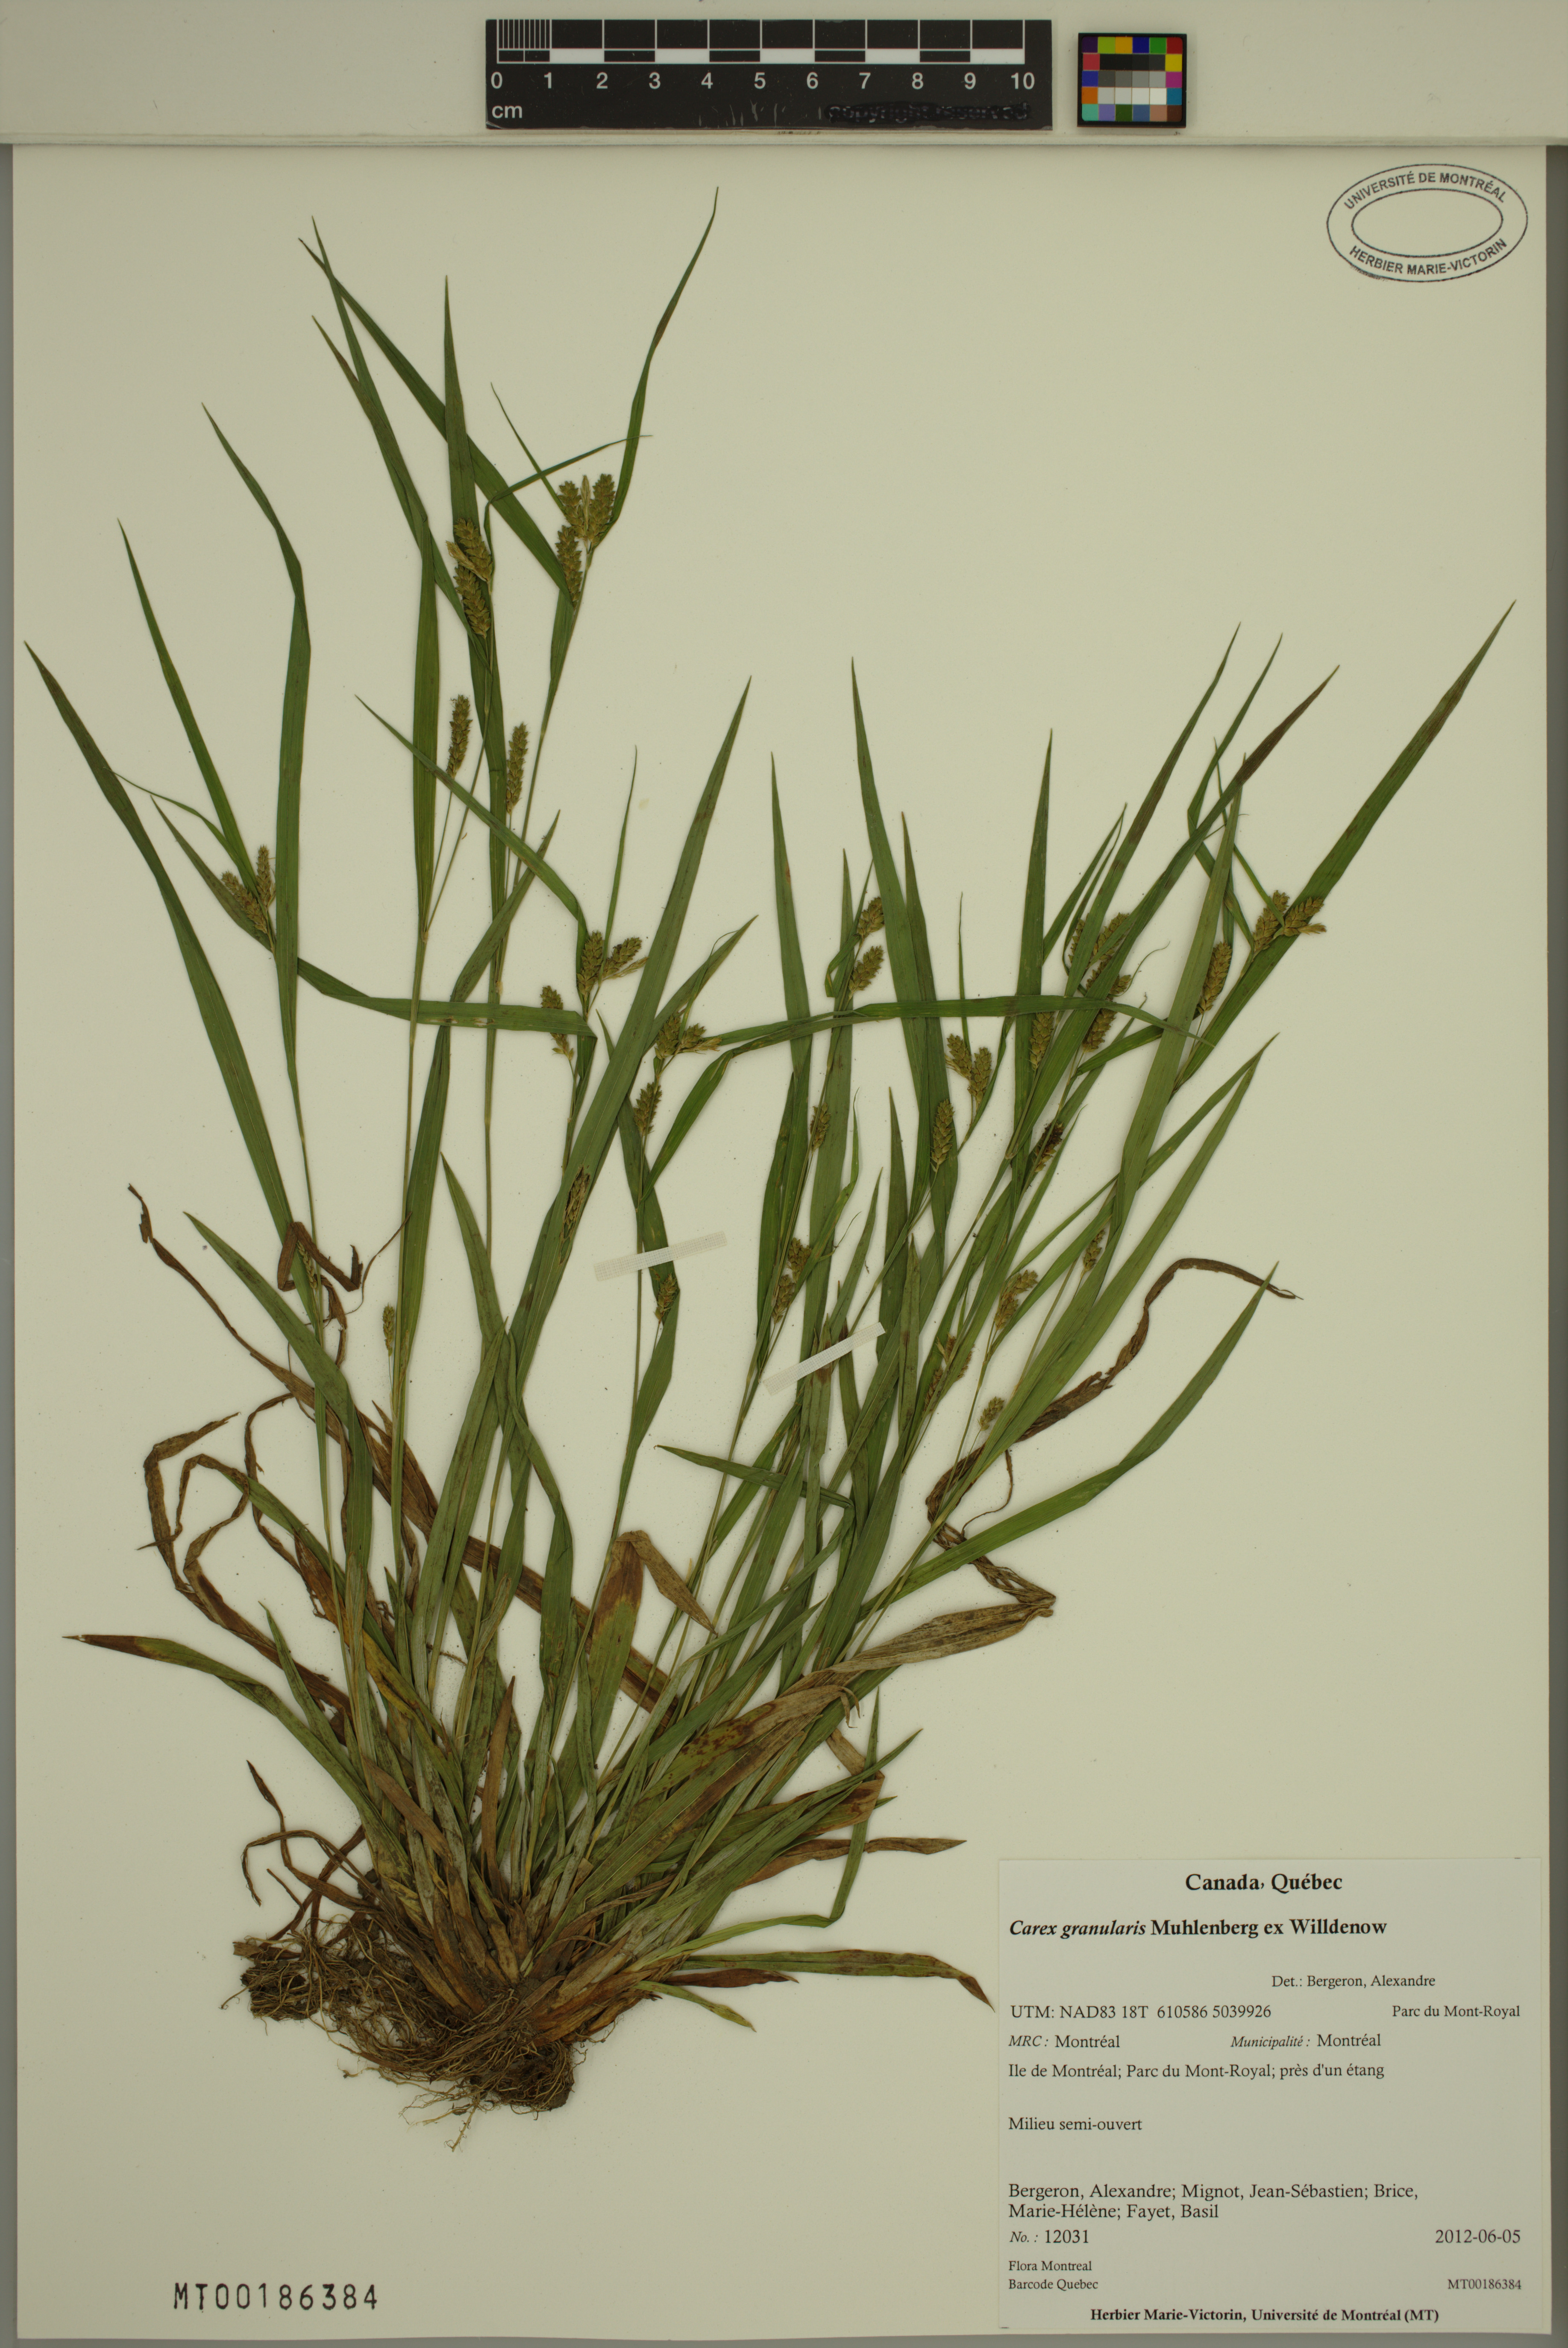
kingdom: Plantae
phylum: Tracheophyta
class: Liliopsida
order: Poales
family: Cyperaceae
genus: Carex
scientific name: Carex granularis
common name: Granular sedge
